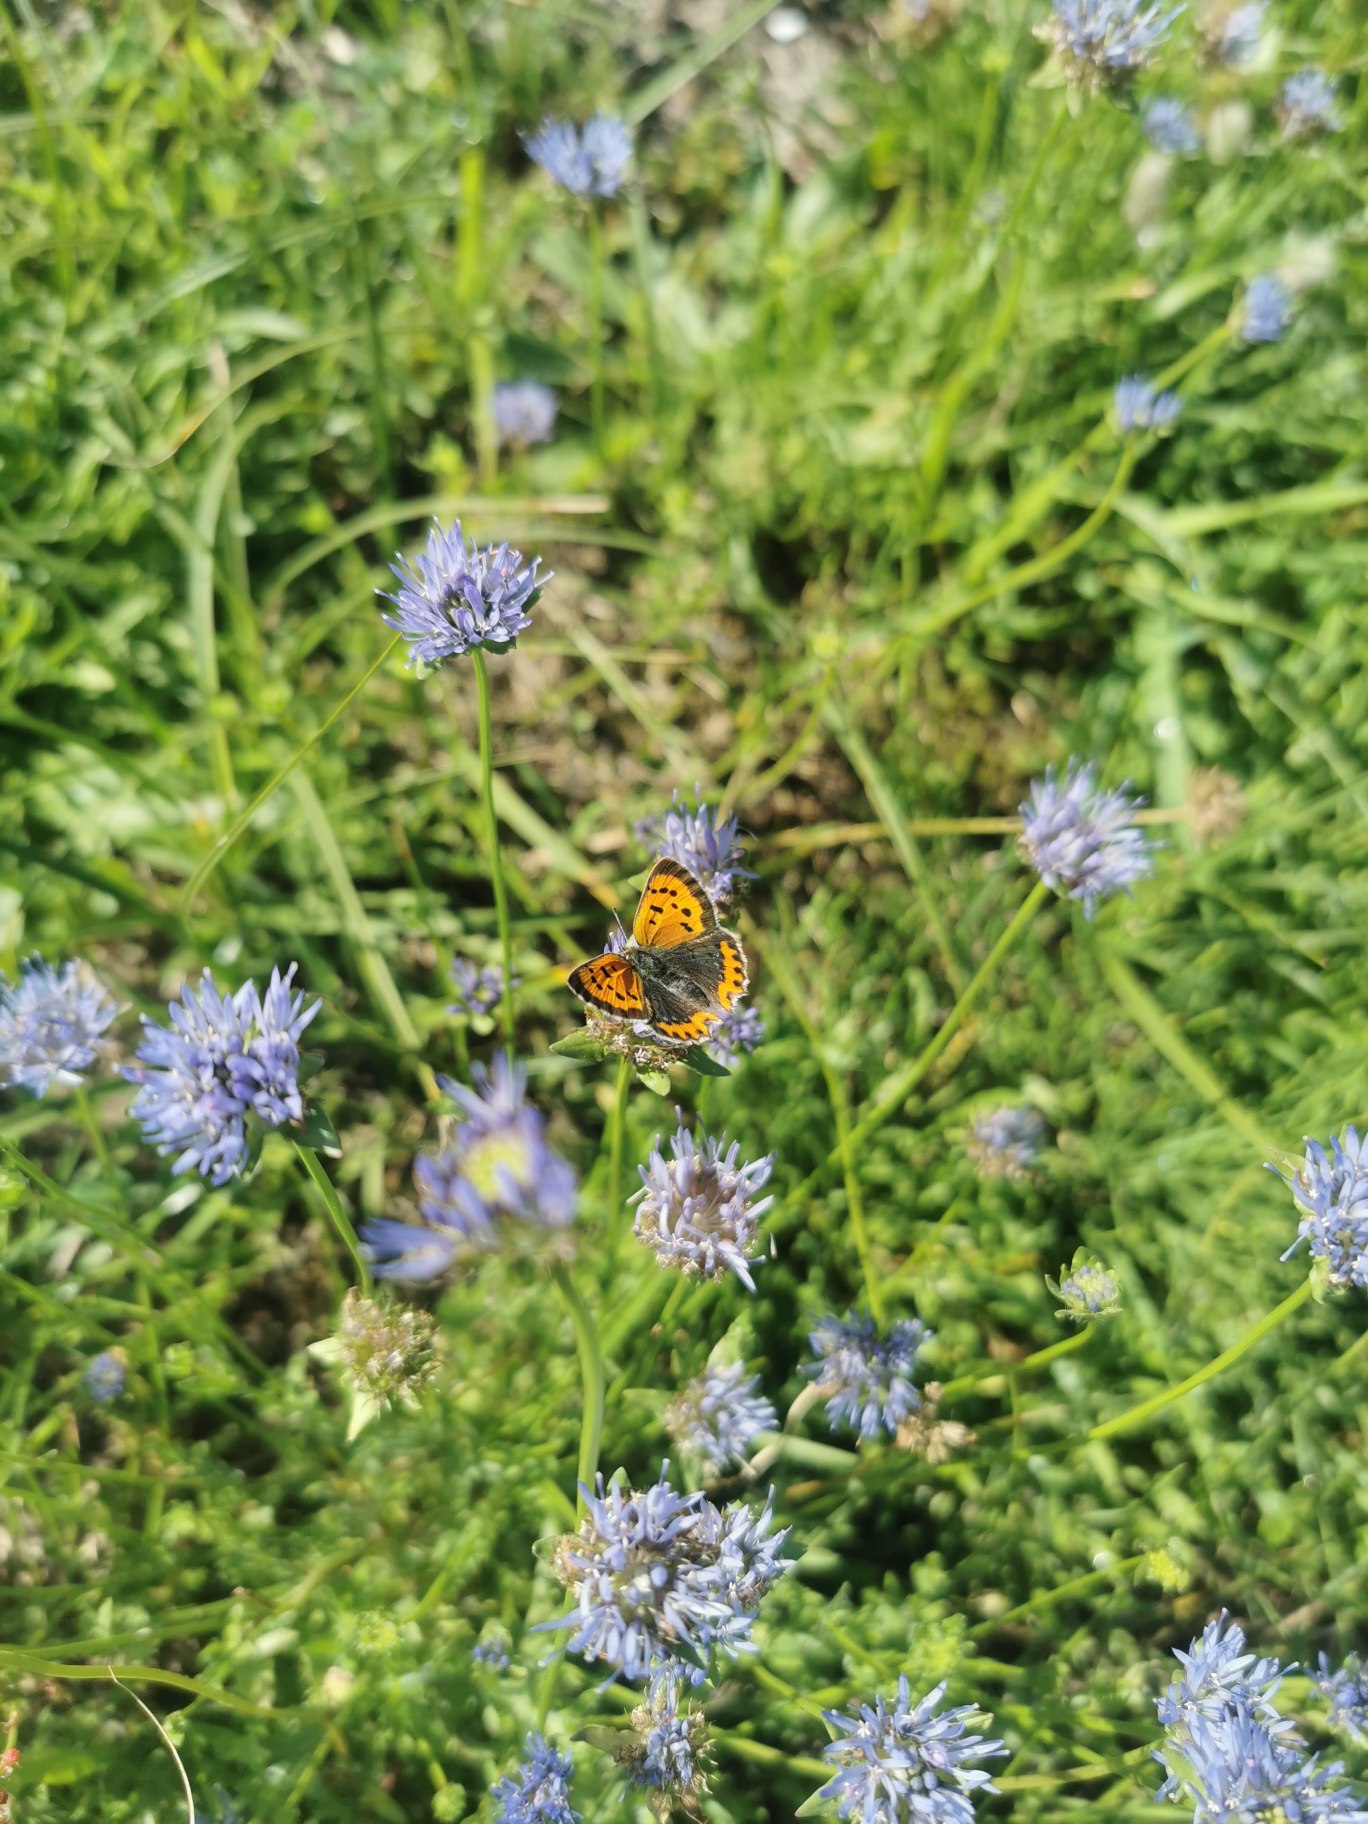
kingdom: Animalia
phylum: Arthropoda
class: Insecta
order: Lepidoptera
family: Lycaenidae
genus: Lycaena
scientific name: Lycaena phlaeas
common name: Lille ildfugl
